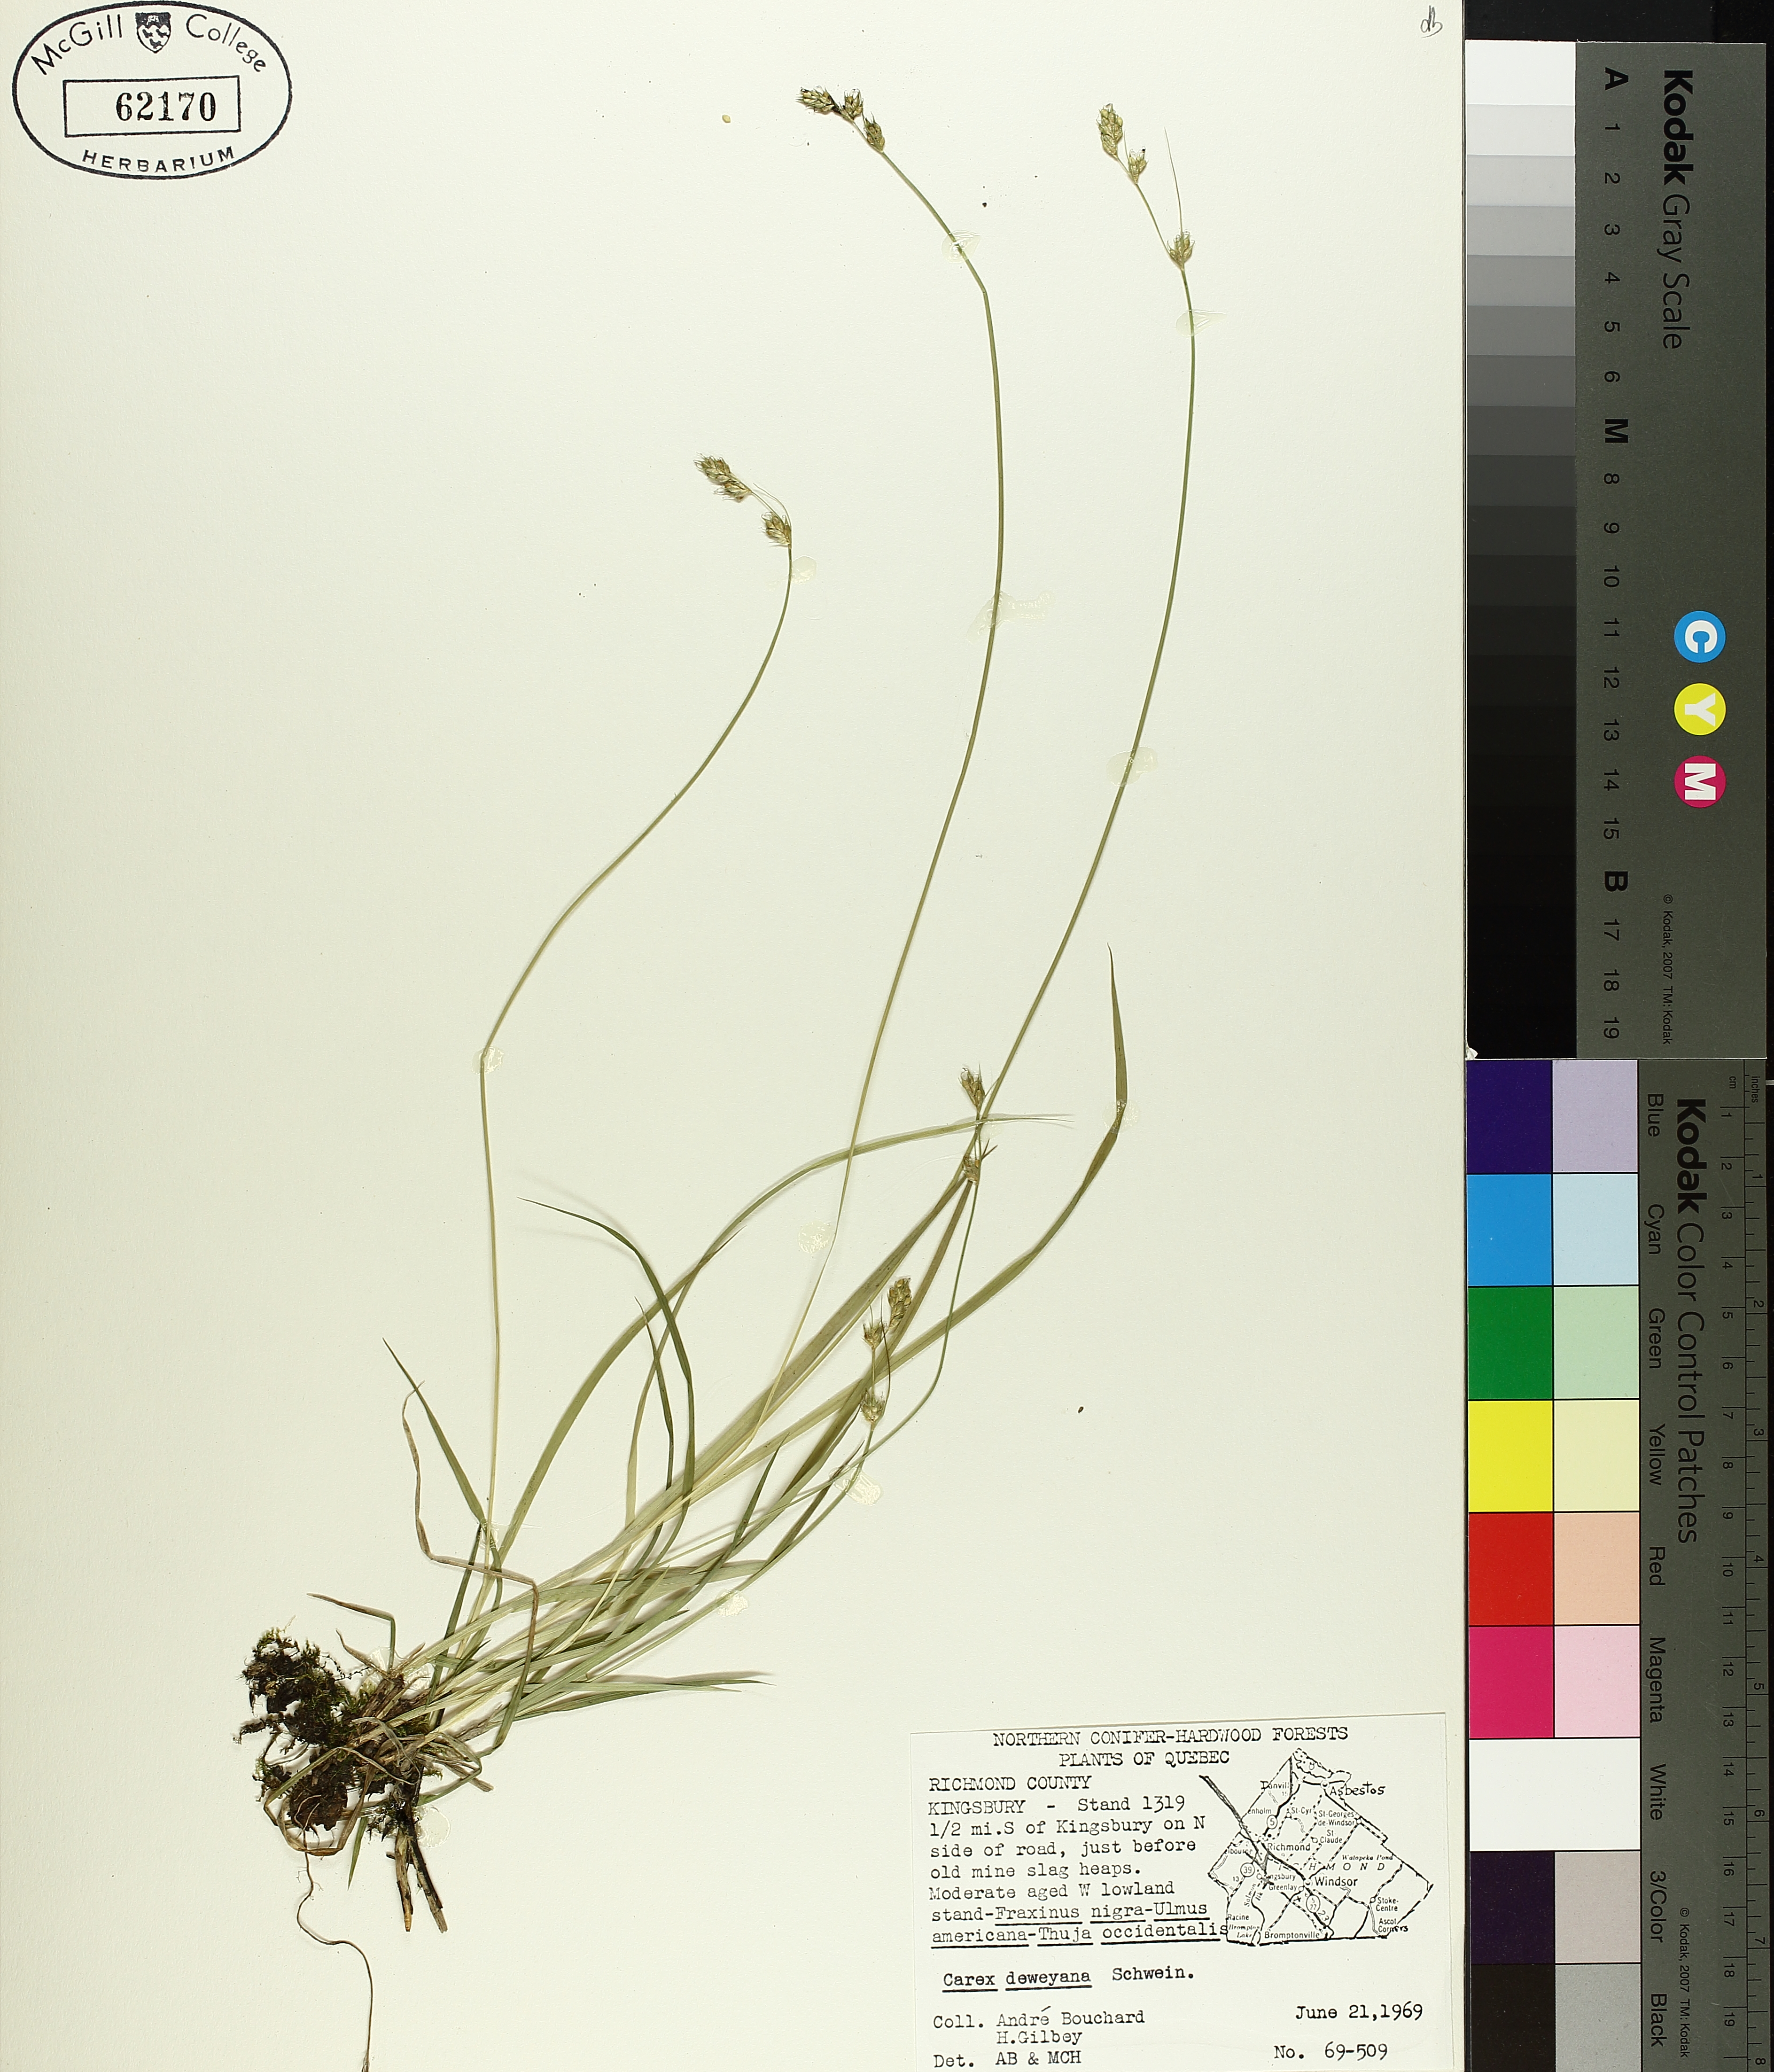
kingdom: Plantae
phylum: Tracheophyta
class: Liliopsida
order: Poales
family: Cyperaceae
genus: Carex
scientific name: Carex deweyana
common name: Dewey's sedge
